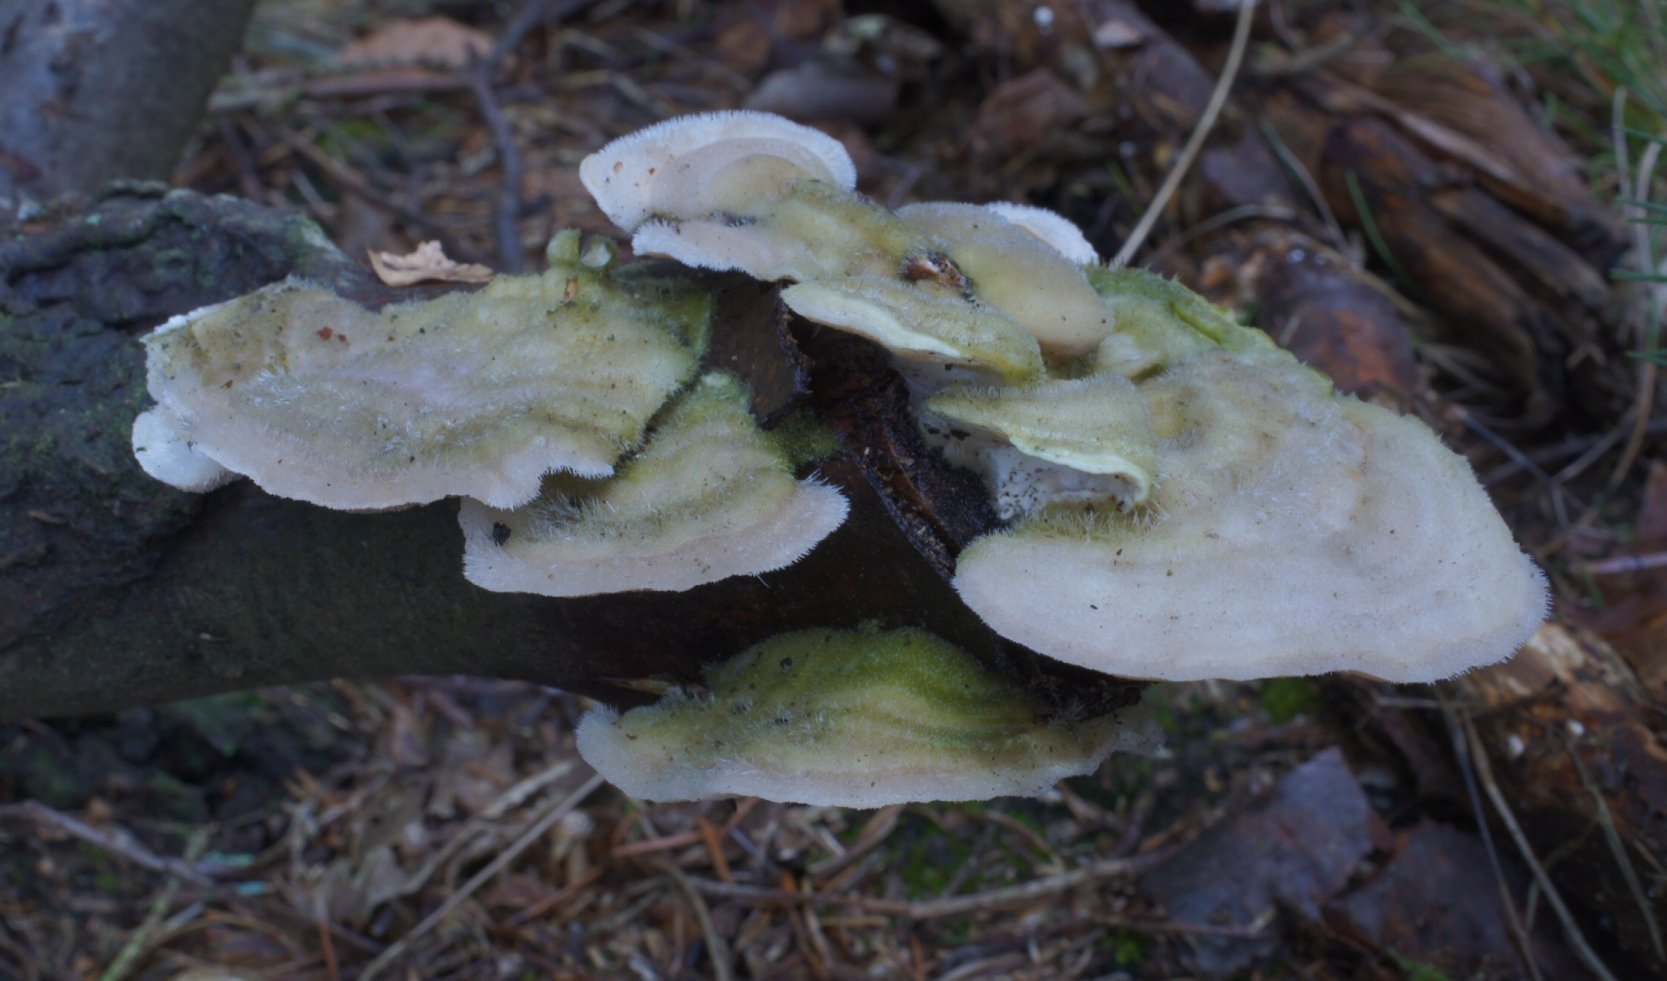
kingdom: Fungi
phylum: Basidiomycota
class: Agaricomycetes
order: Polyporales
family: Polyporaceae
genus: Trametes
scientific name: Trametes hirsuta
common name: håret læderporesvamp
